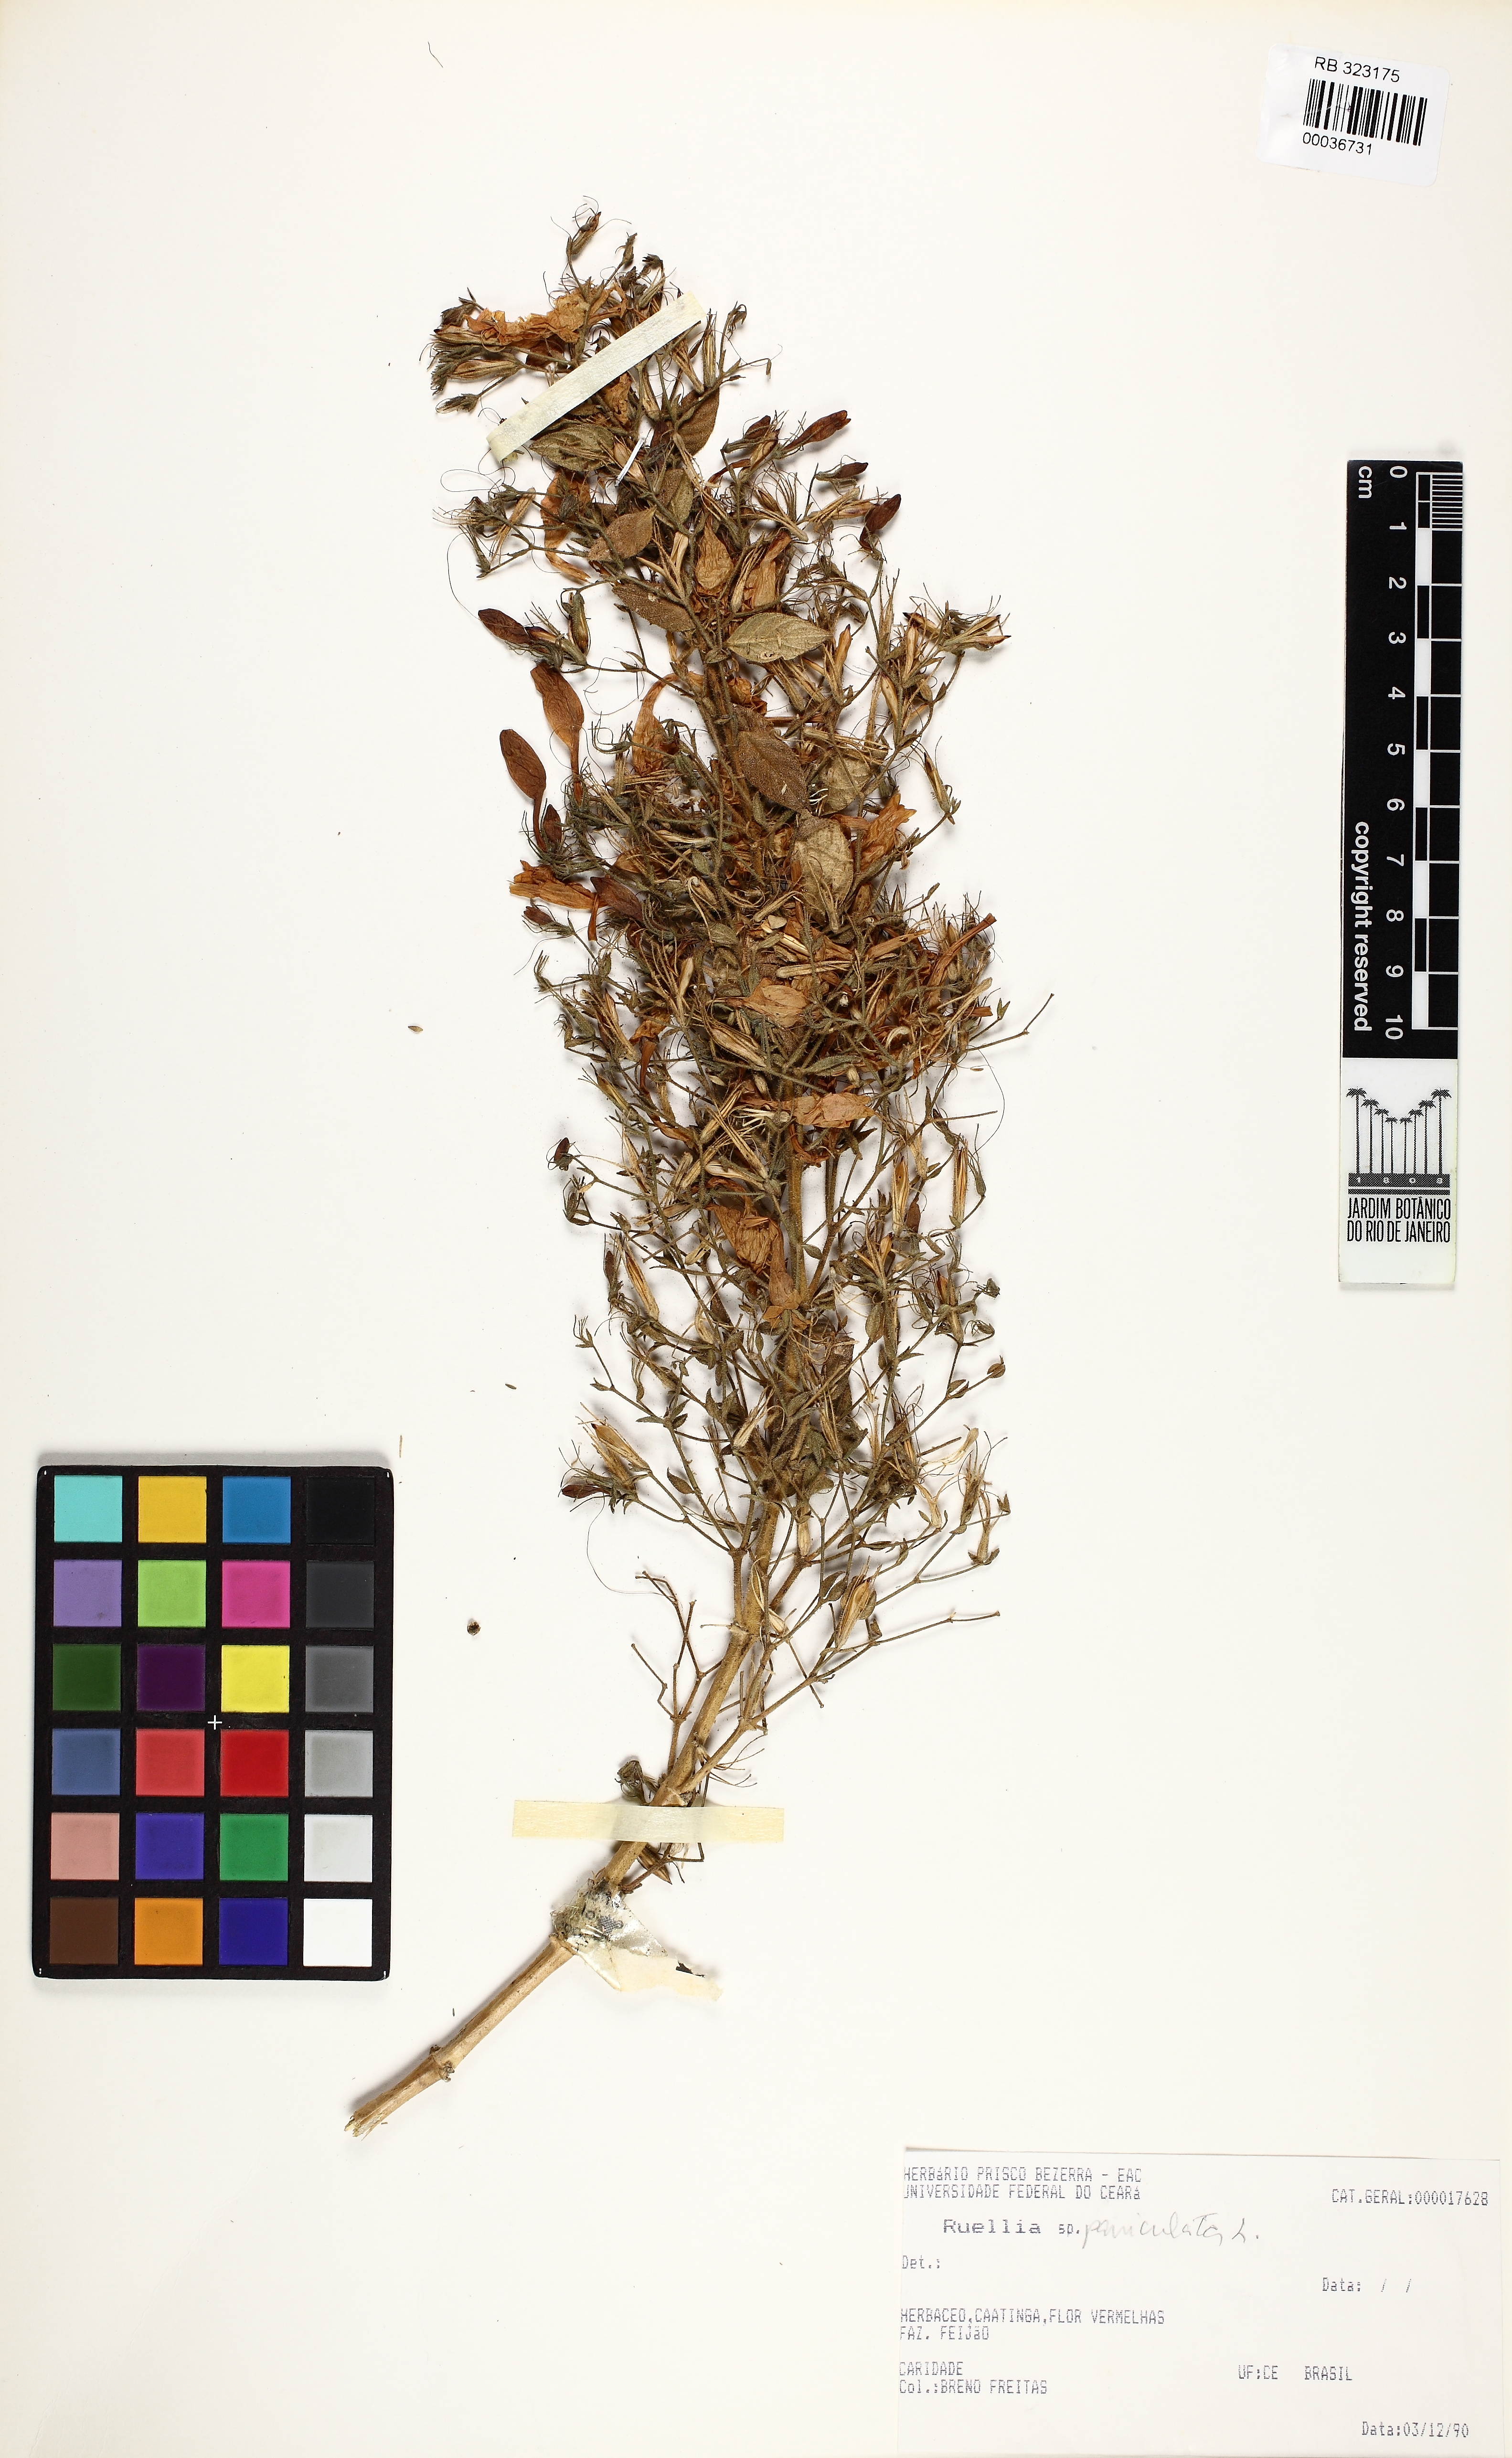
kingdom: Plantae
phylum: Tracheophyta
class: Magnoliopsida
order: Lamiales
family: Acanthaceae
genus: Ruellia
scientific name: Ruellia paniculata
